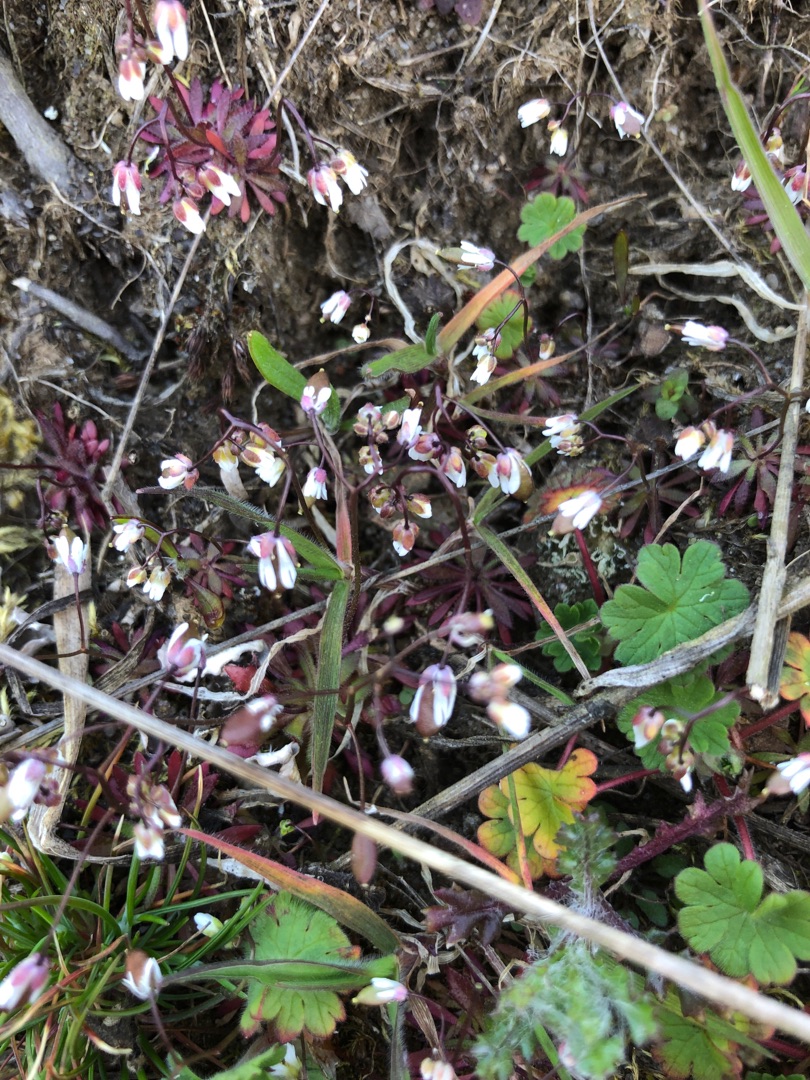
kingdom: Plantae
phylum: Tracheophyta
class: Magnoliopsida
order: Brassicales
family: Brassicaceae
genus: Draba
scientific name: Draba verna
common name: Vår-gæslingeblomst
